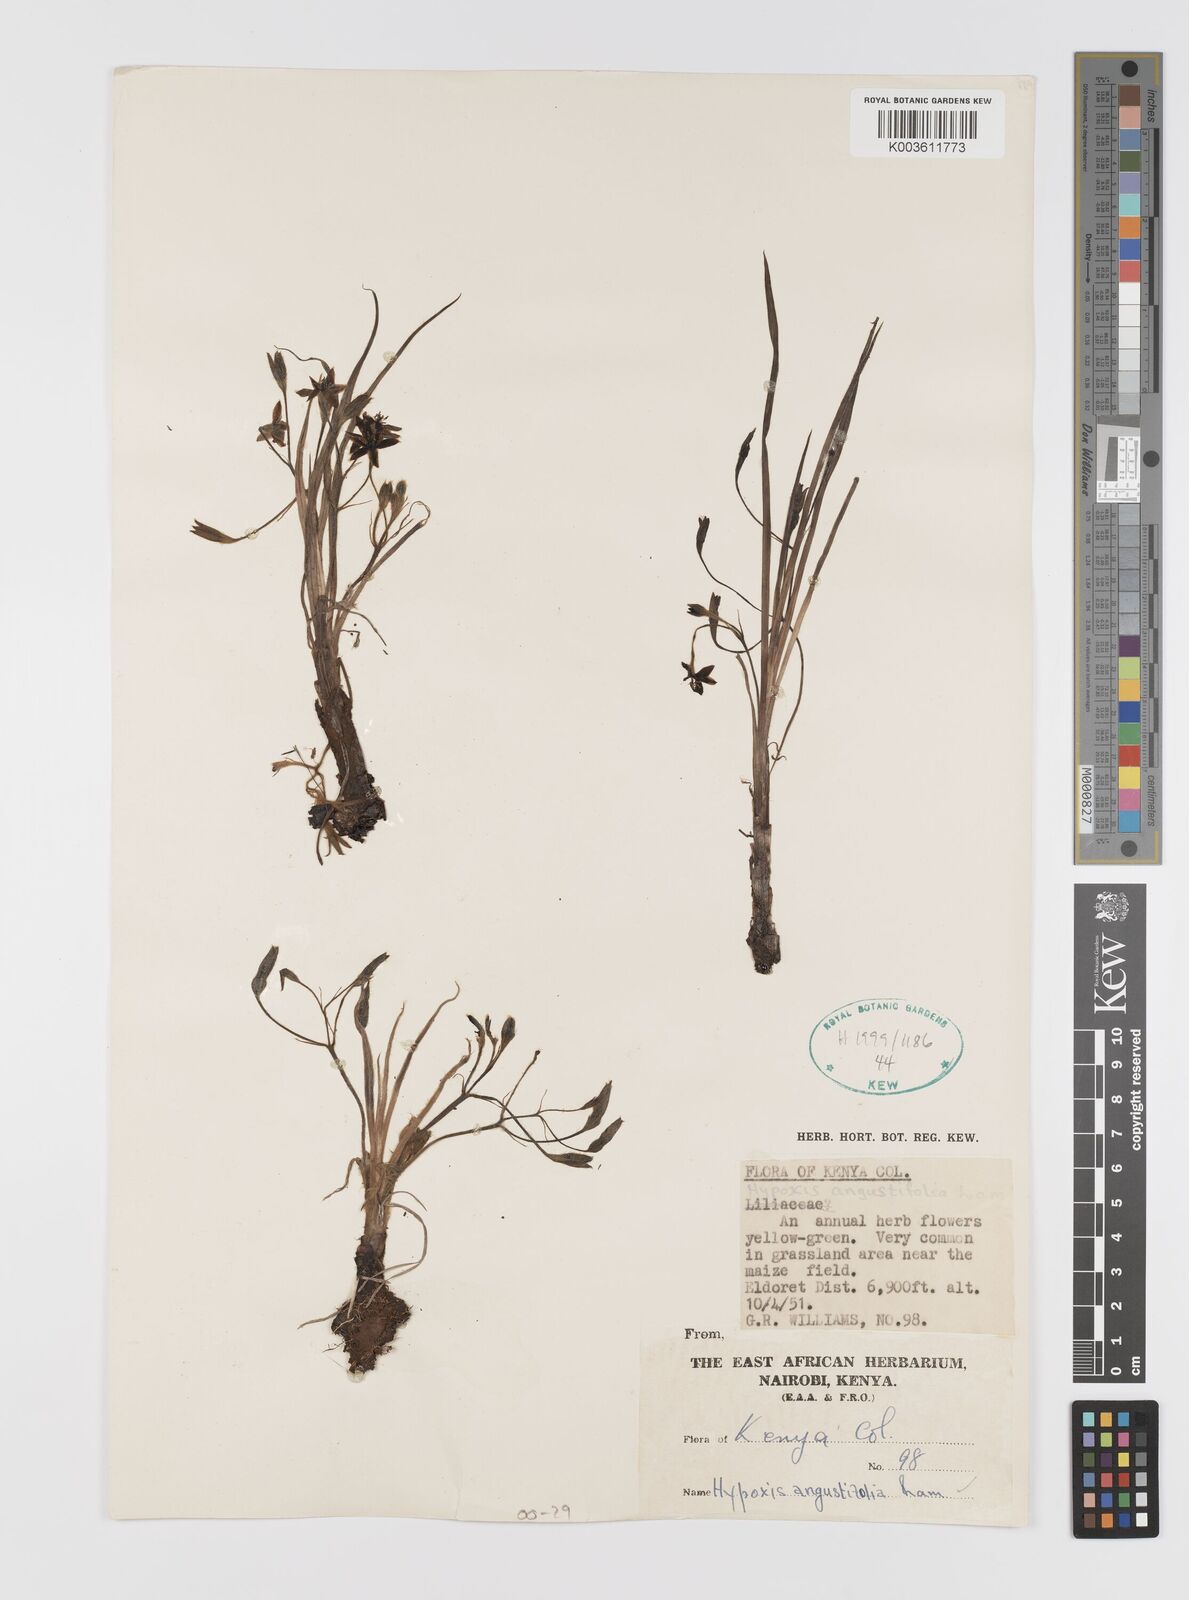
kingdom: Plantae
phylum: Tracheophyta
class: Liliopsida
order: Asparagales
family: Hypoxidaceae
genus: Hypoxis
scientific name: Hypoxis angustifolia
